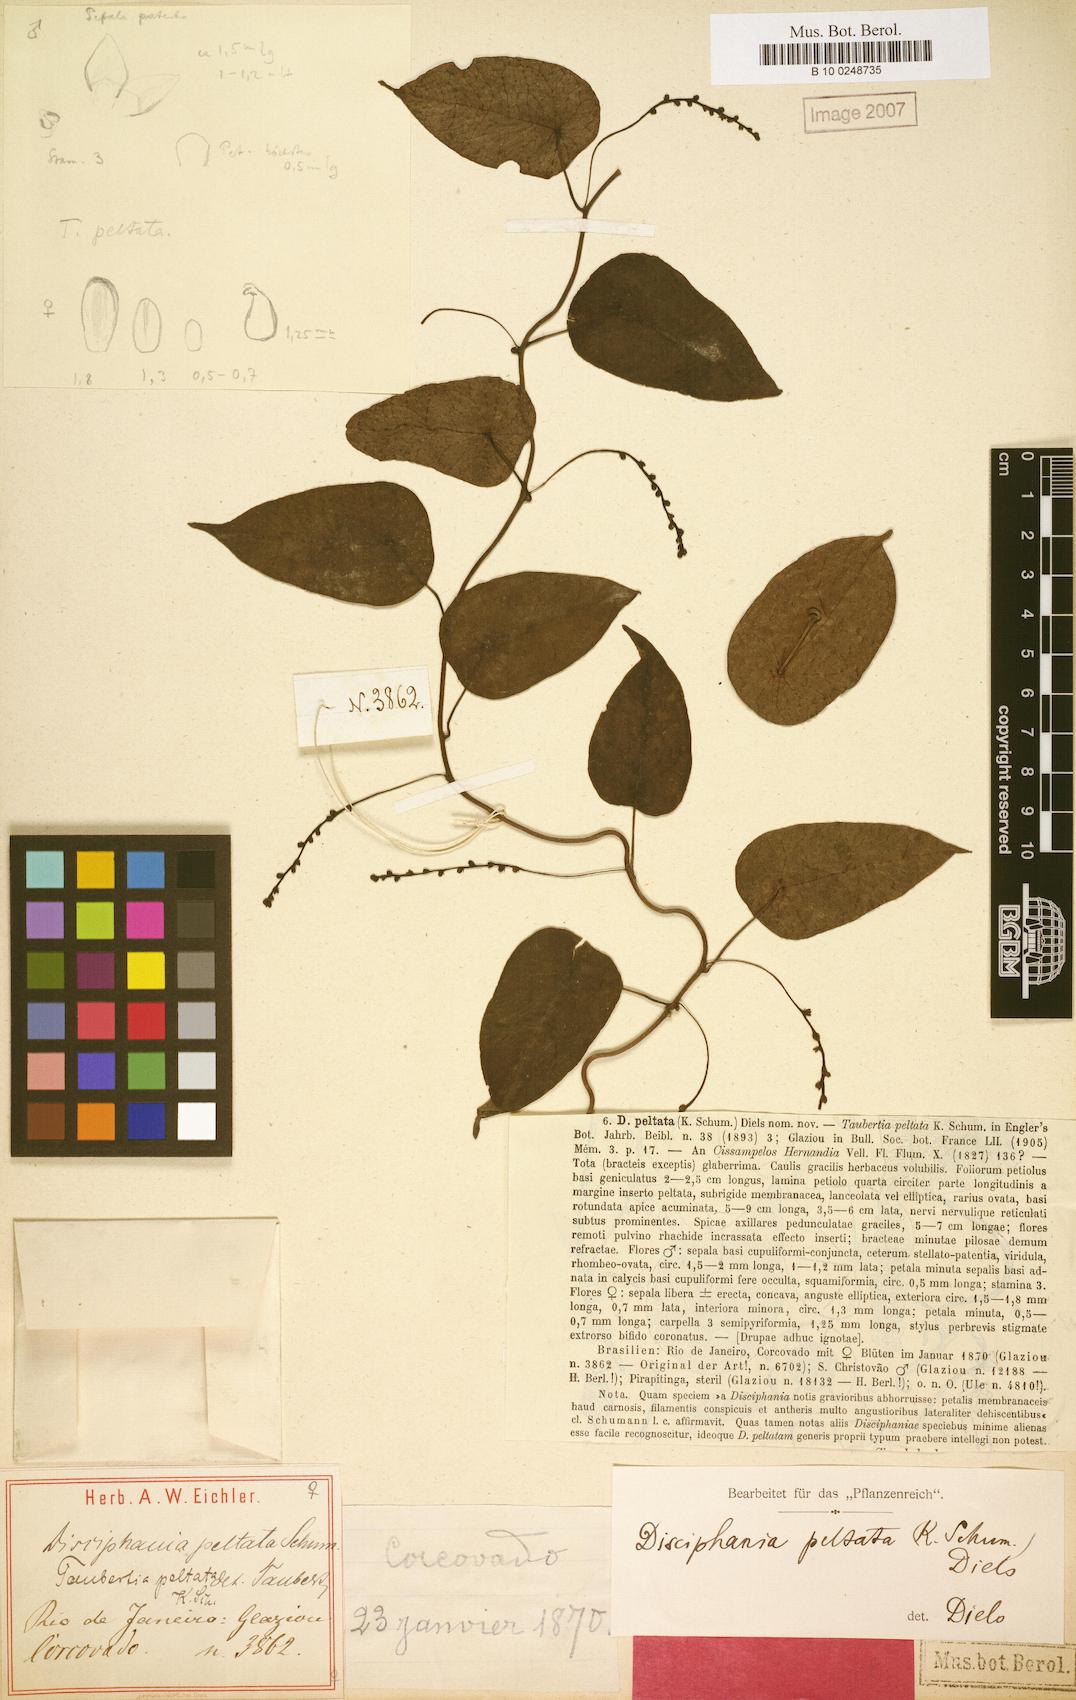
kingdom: Plantae
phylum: Tracheophyta
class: Magnoliopsida
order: Ranunculales
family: Menispermaceae
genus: Disciphania
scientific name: Disciphania hernandia
